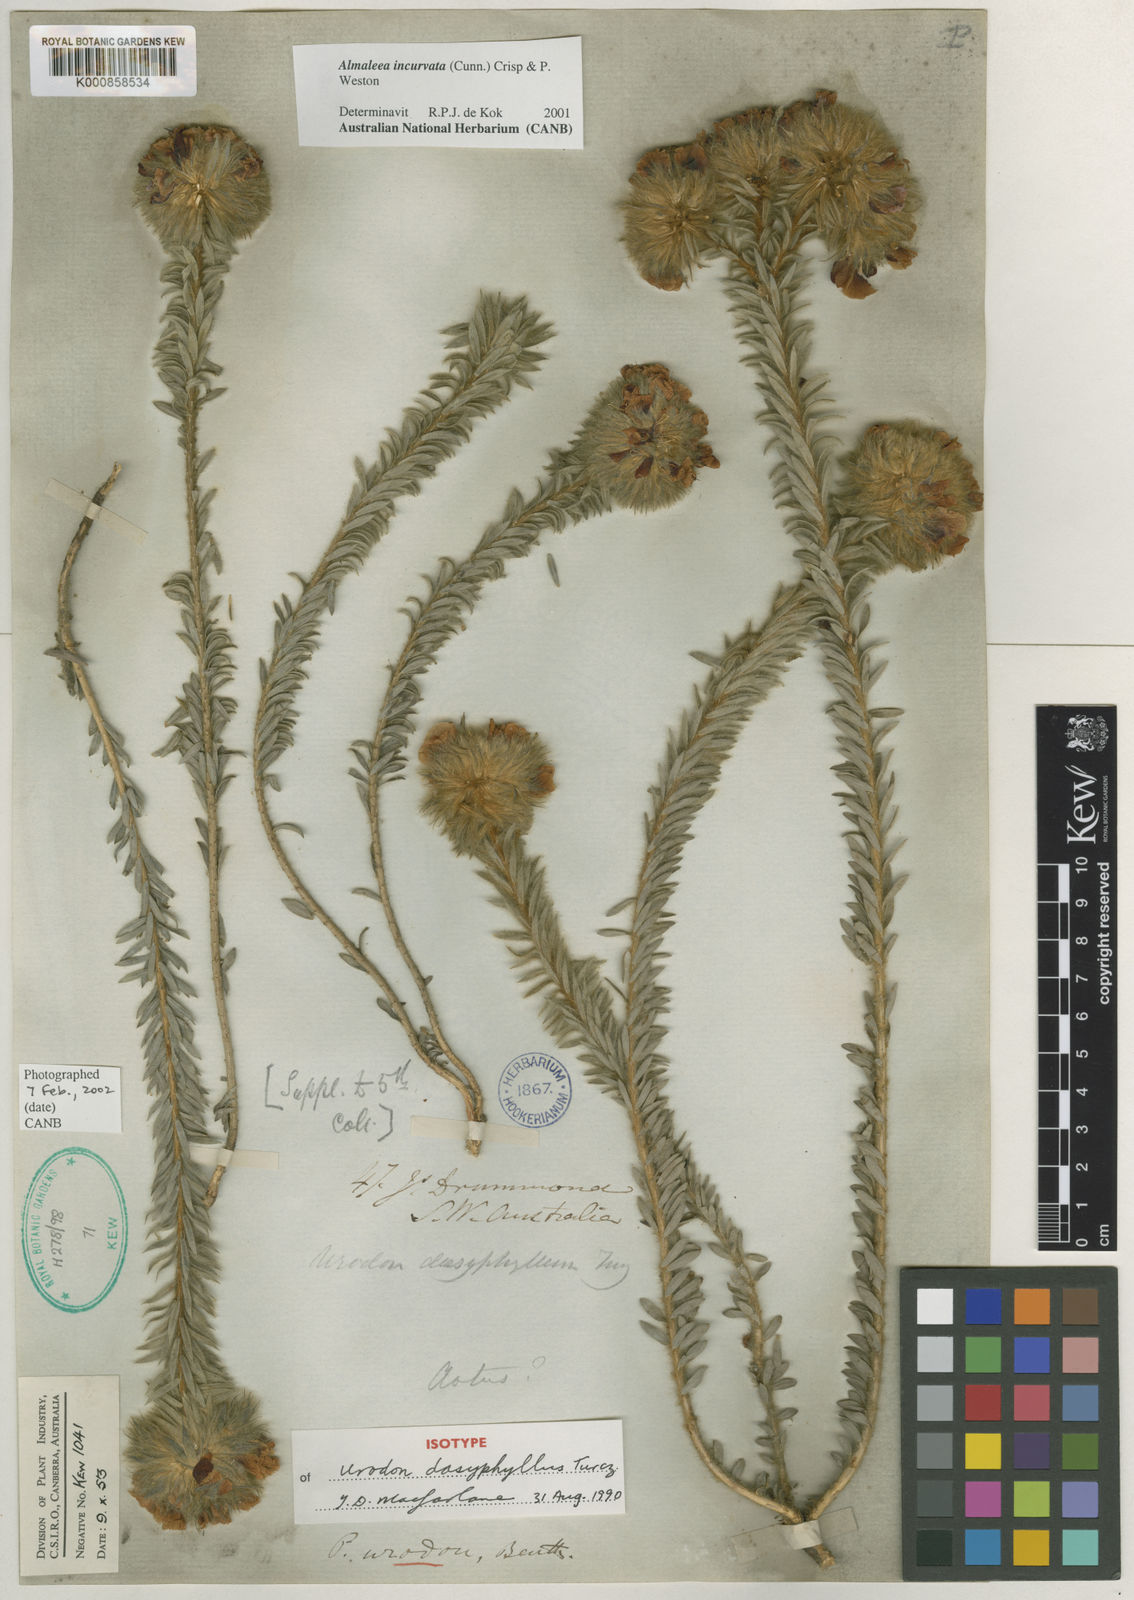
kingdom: Plantae
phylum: Tracheophyta
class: Magnoliopsida
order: Fabales
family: Fabaceae
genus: Almaleea
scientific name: Almaleea incurvata
